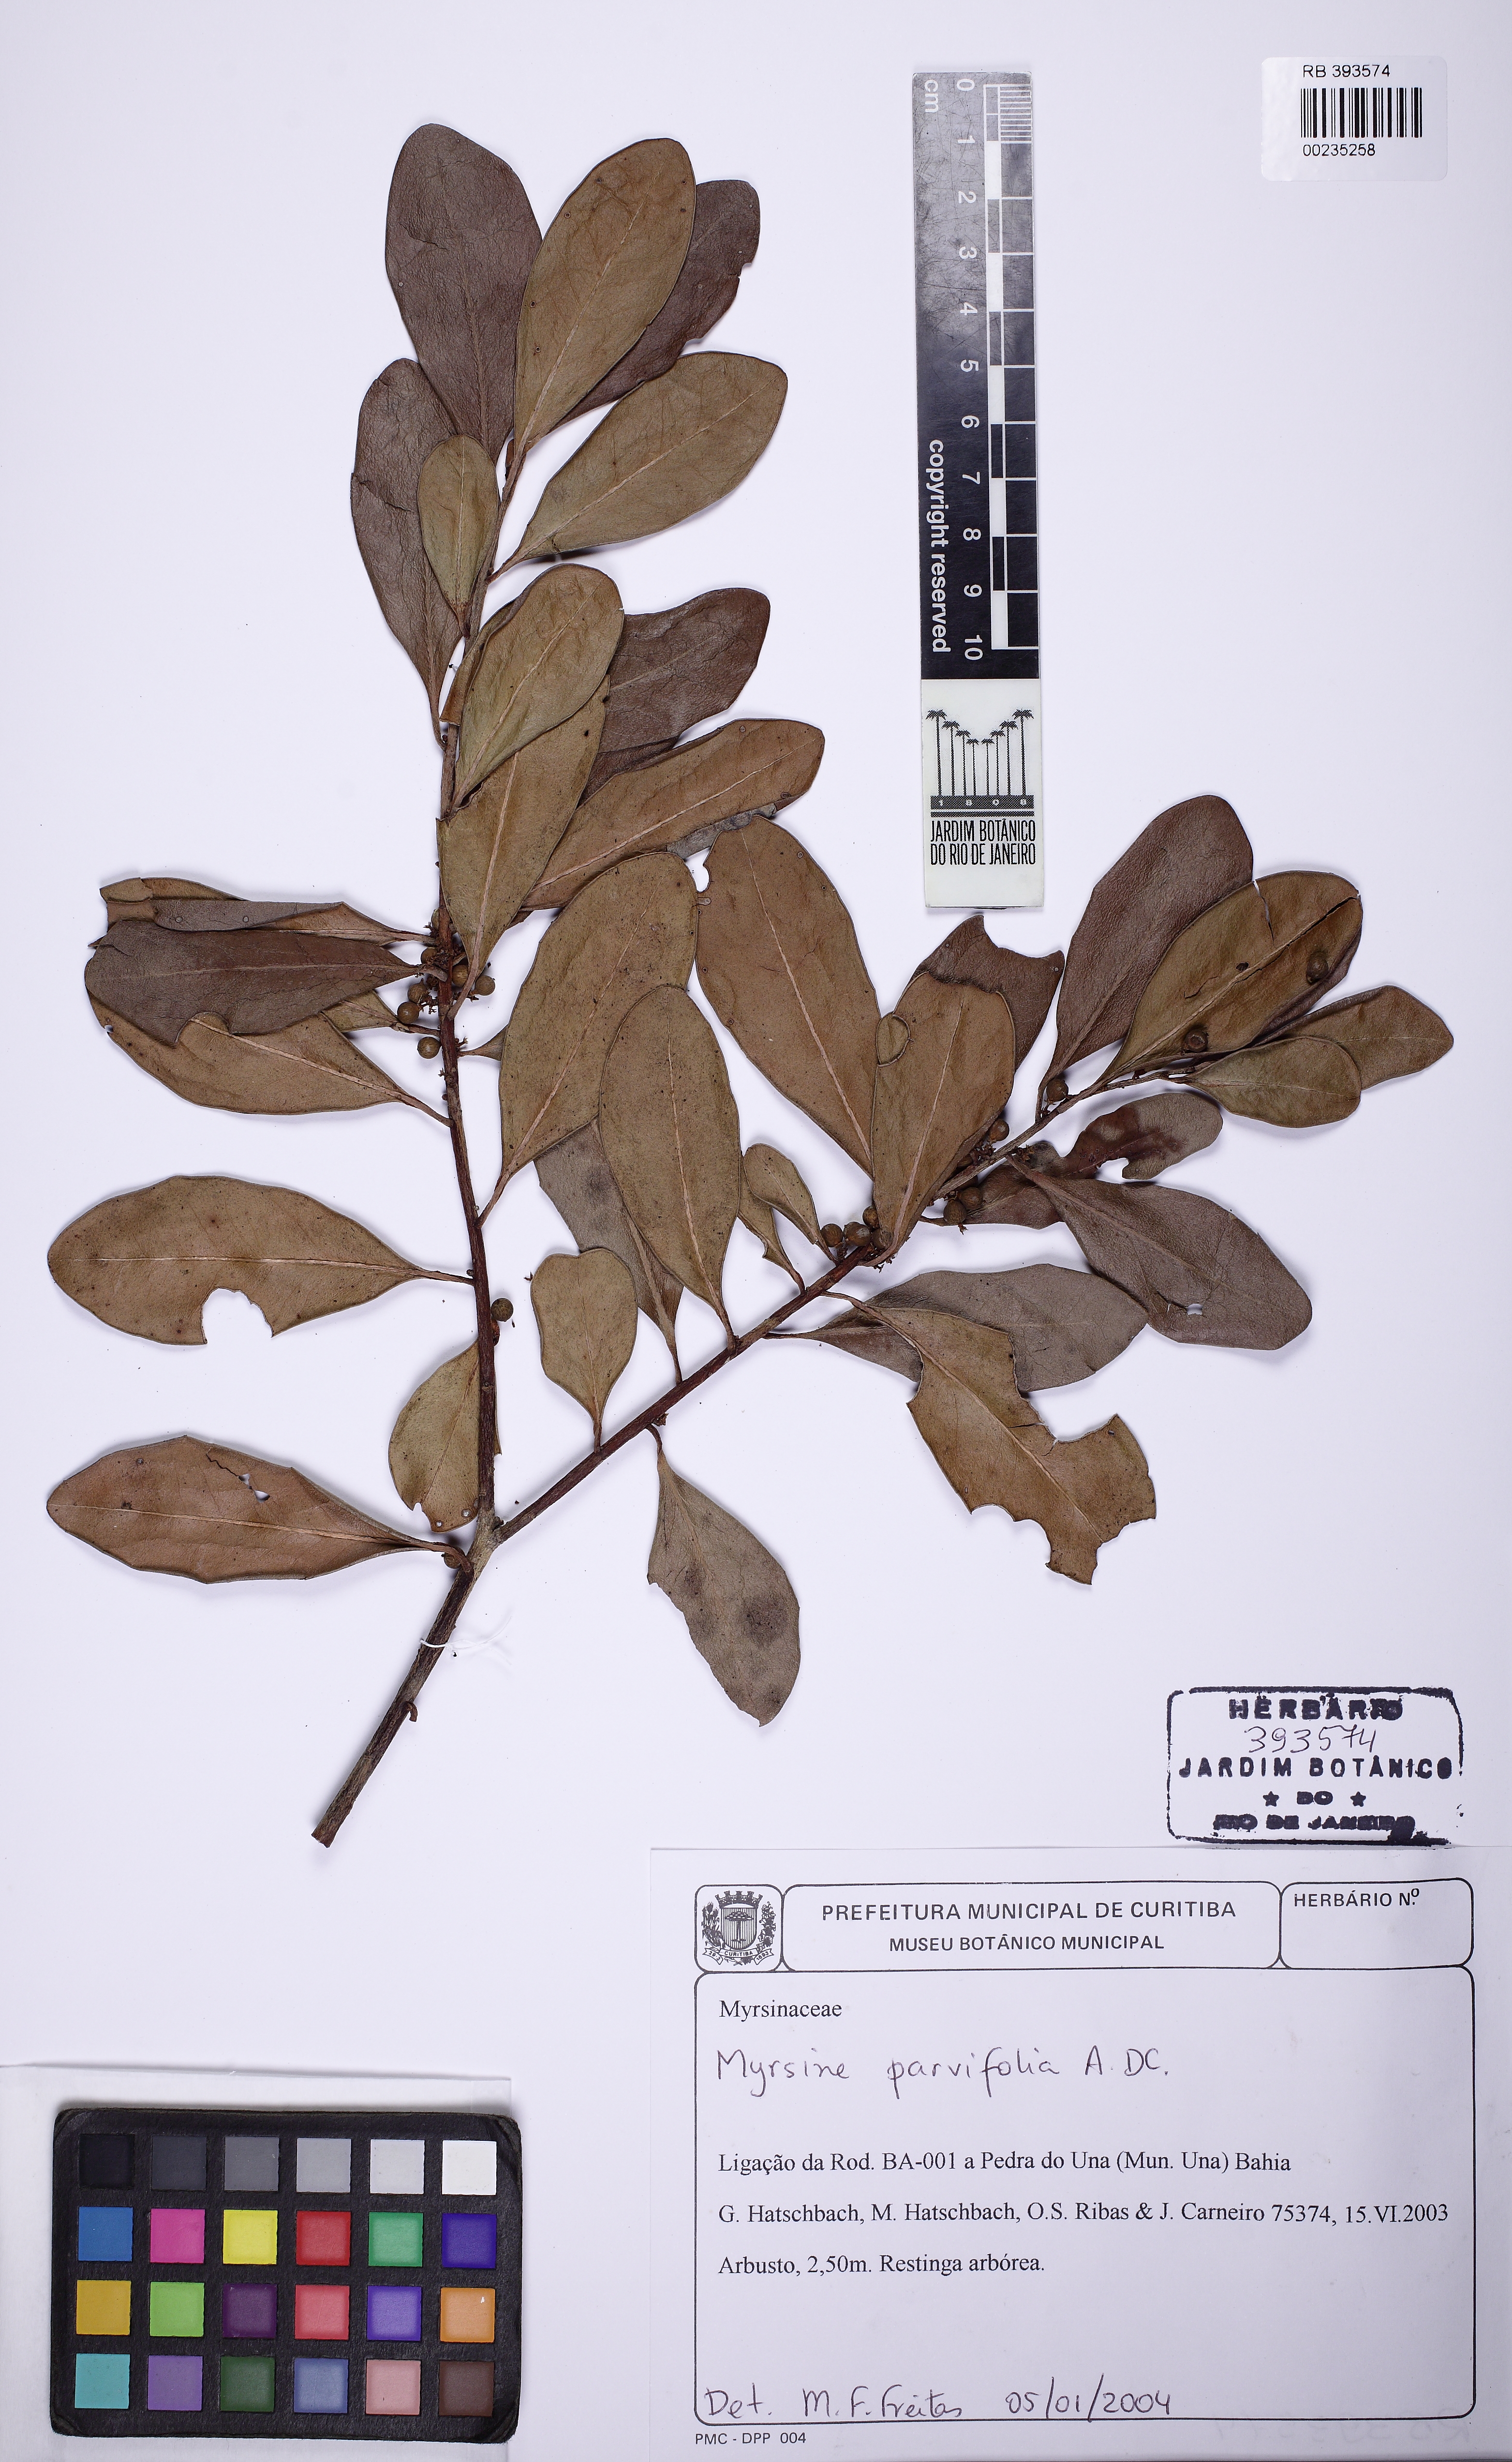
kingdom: Plantae
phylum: Tracheophyta
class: Magnoliopsida
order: Ericales
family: Primulaceae
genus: Myrsine
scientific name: Myrsine parvifolia
